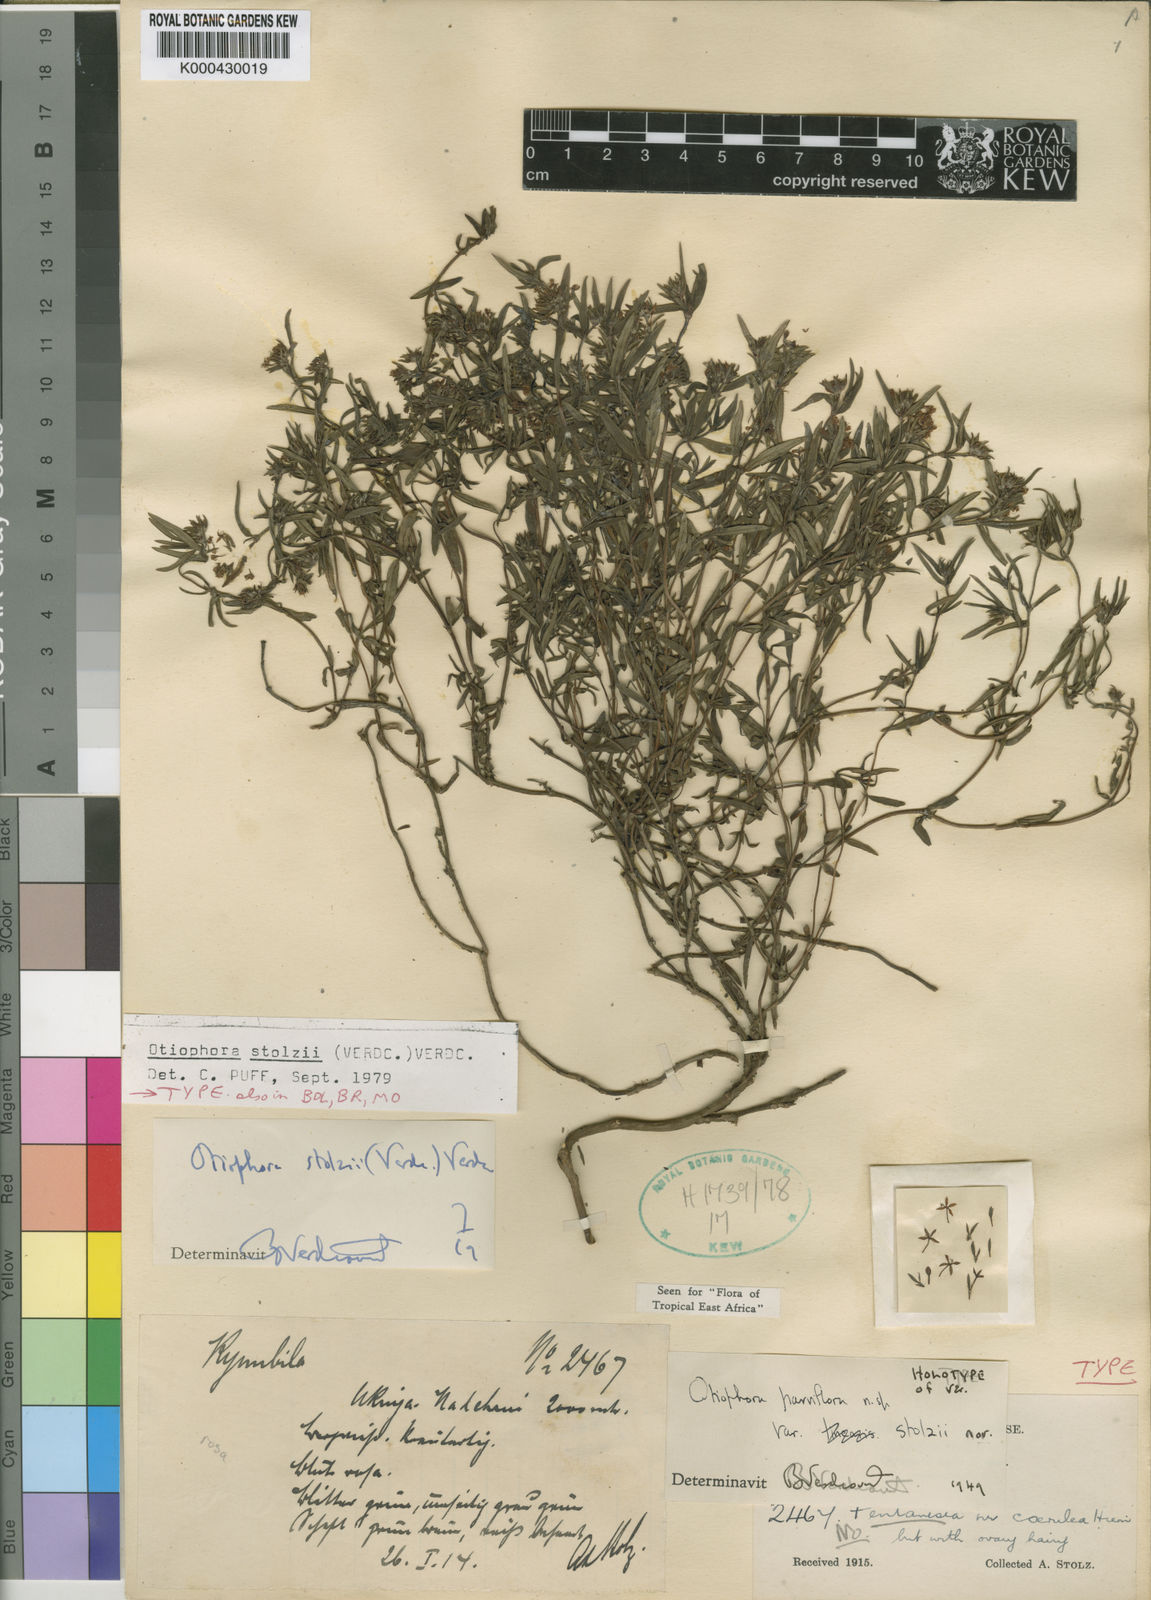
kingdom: Plantae
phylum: Tracheophyta
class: Magnoliopsida
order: Gentianales
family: Rubiaceae
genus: Otiophora
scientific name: Otiophora stolzii
